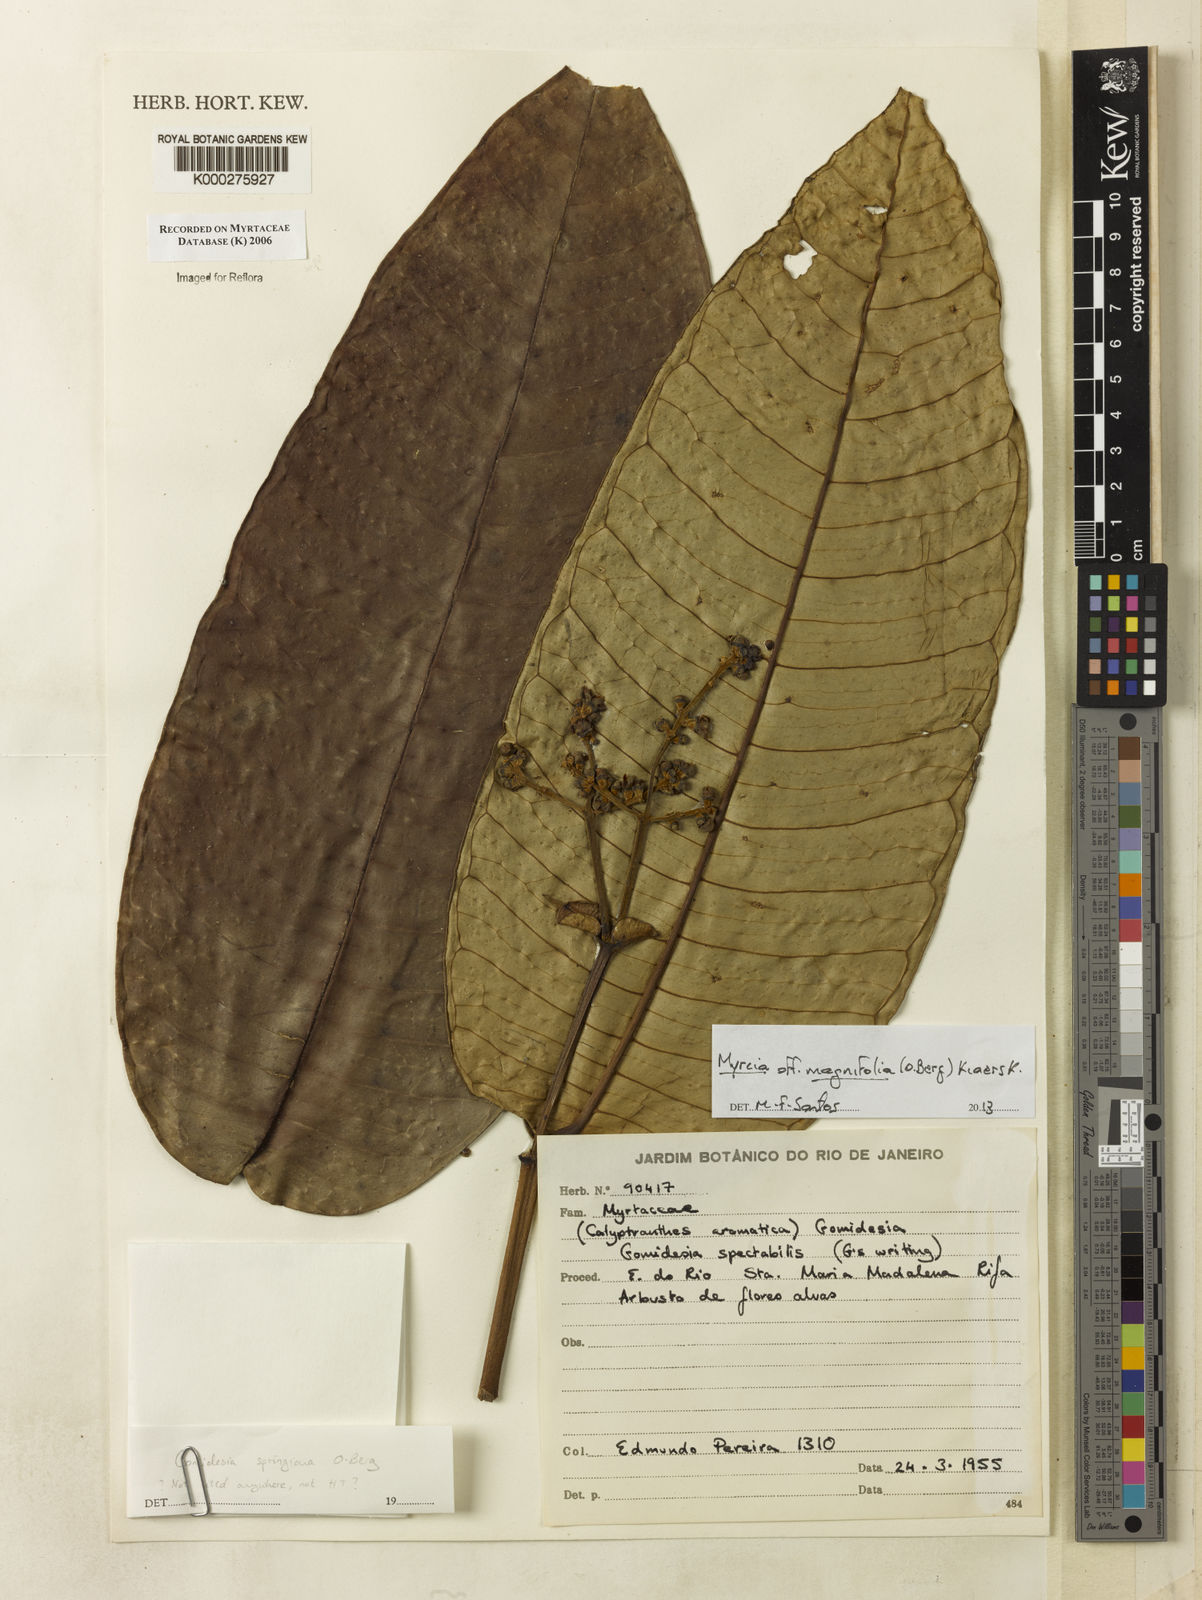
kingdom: Plantae
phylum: Tracheophyta
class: Magnoliopsida
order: Myrtales
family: Myrtaceae
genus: Myrcia
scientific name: Myrcia spectabilis
